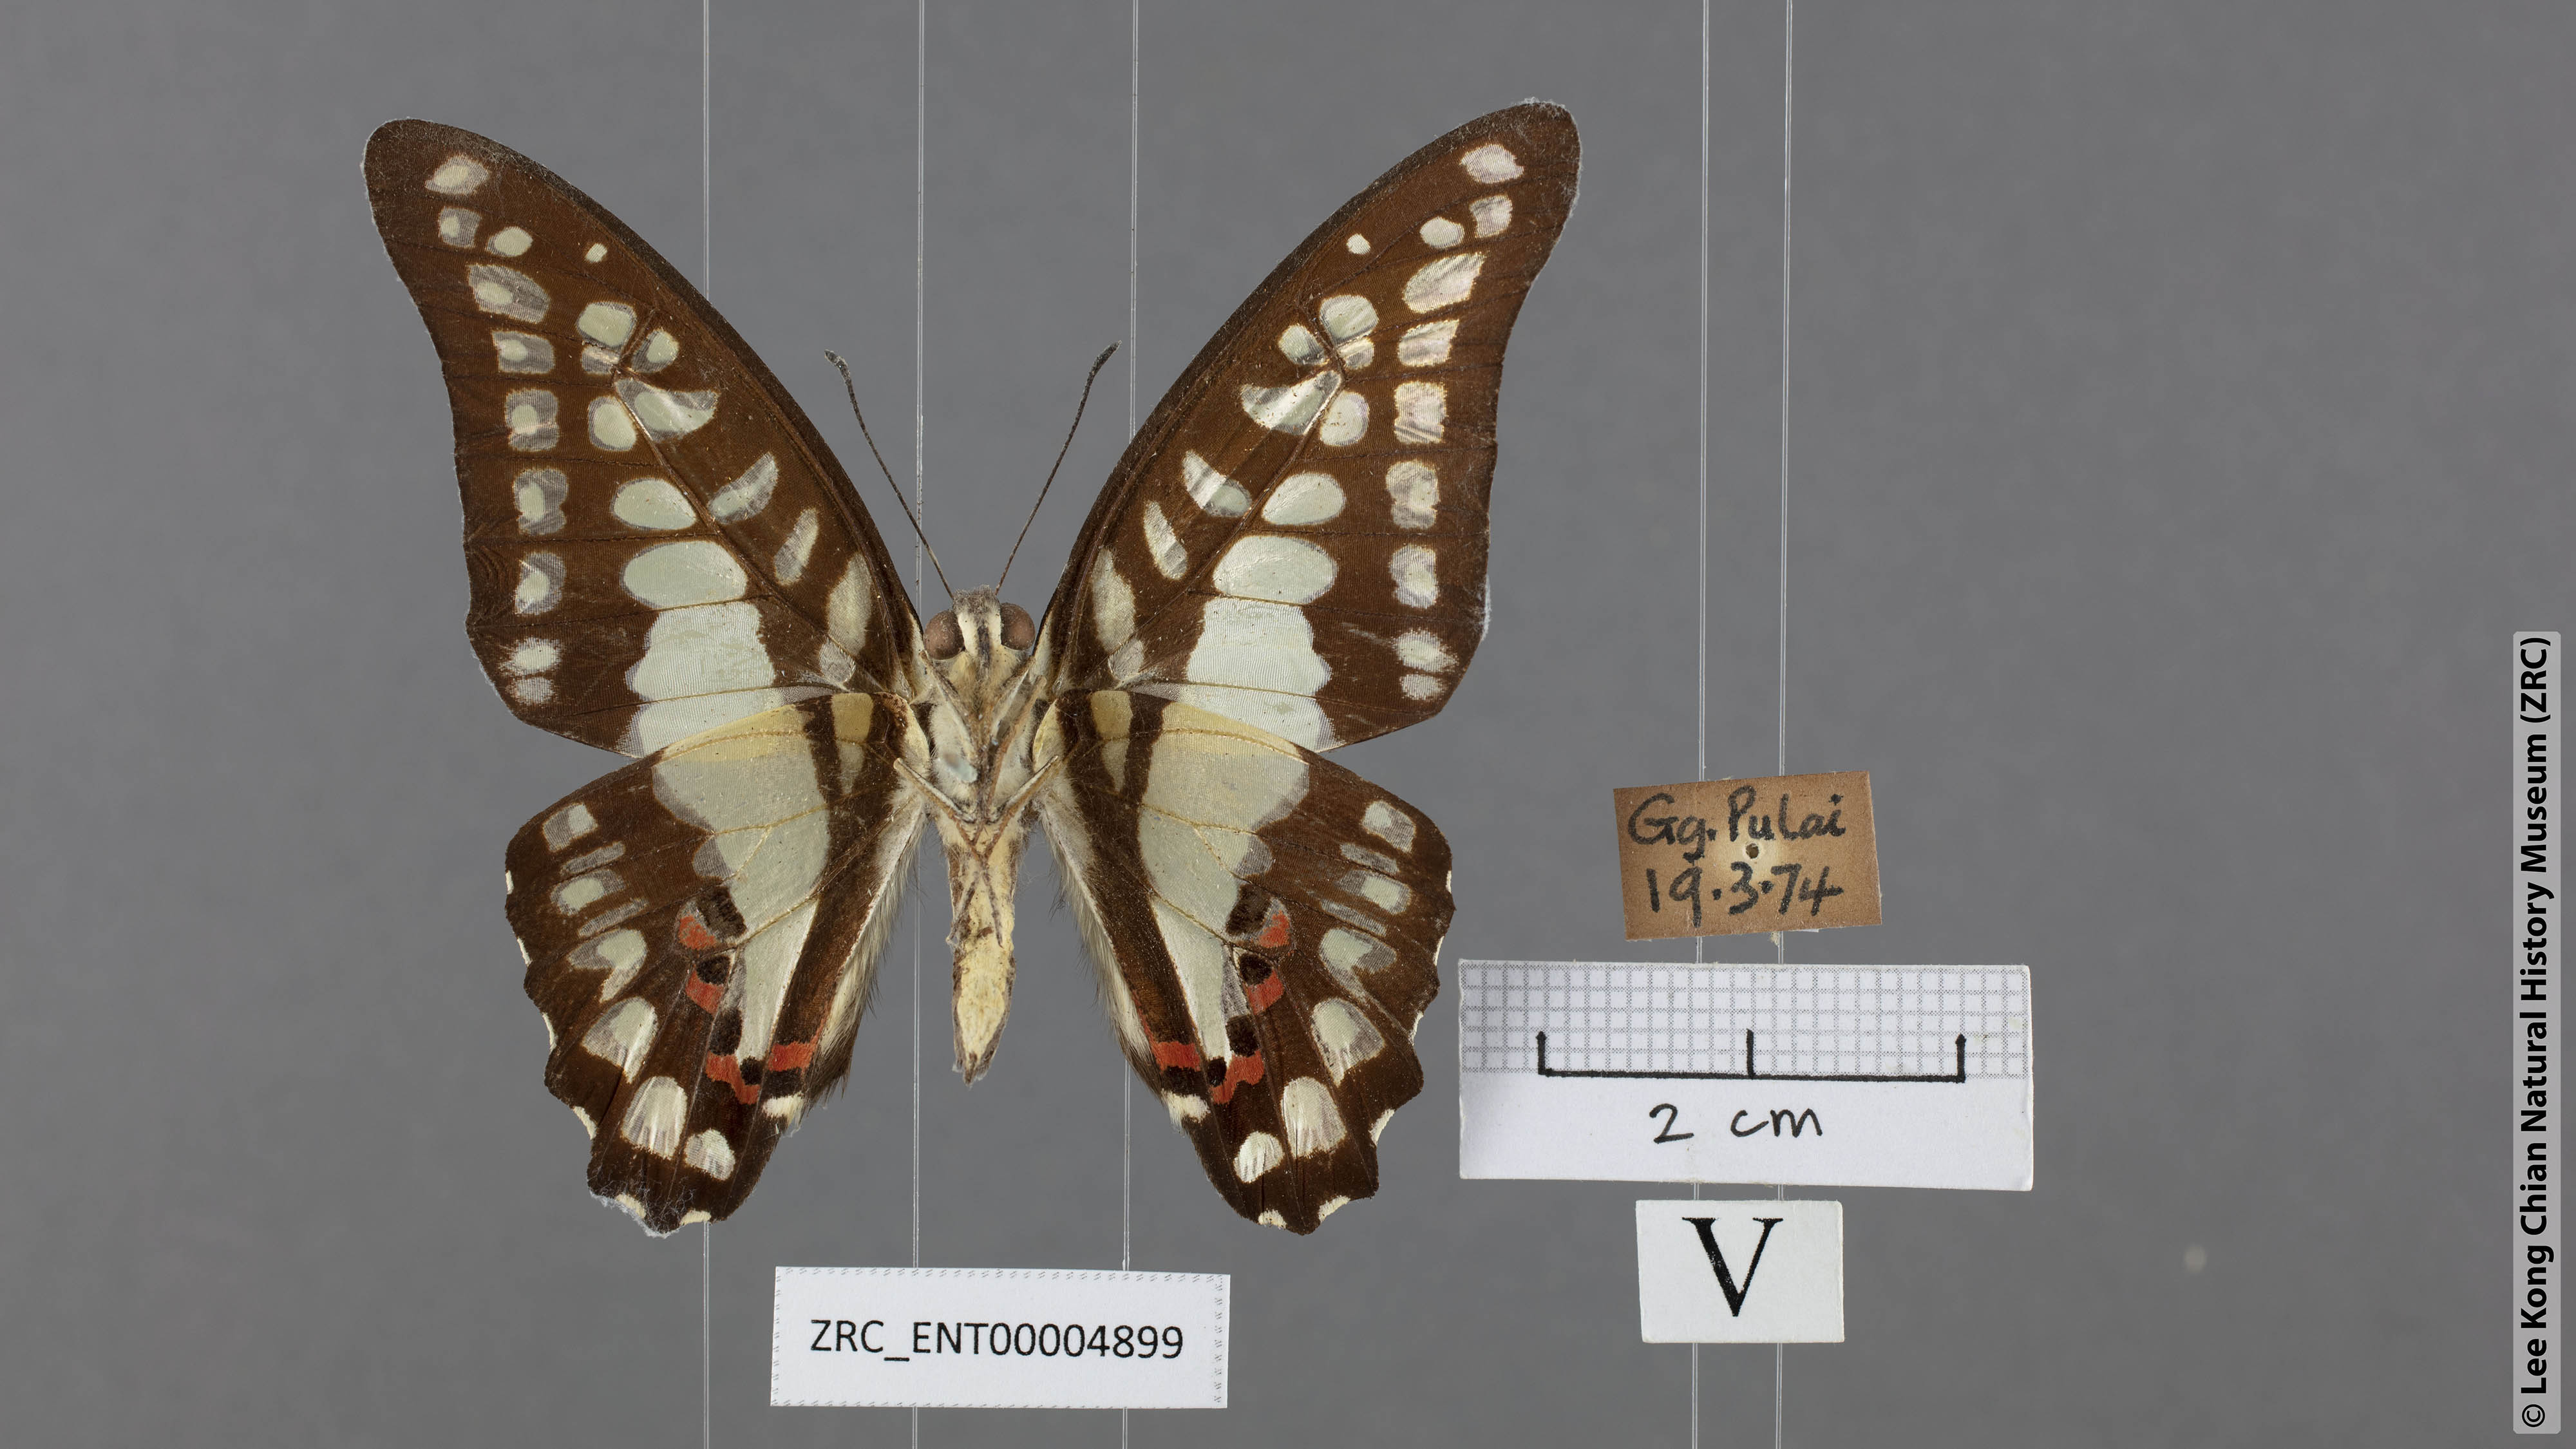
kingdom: Animalia
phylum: Arthropoda
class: Insecta
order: Lepidoptera
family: Papilionidae
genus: Graphium
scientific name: Graphium evemon
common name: Lesser jay
